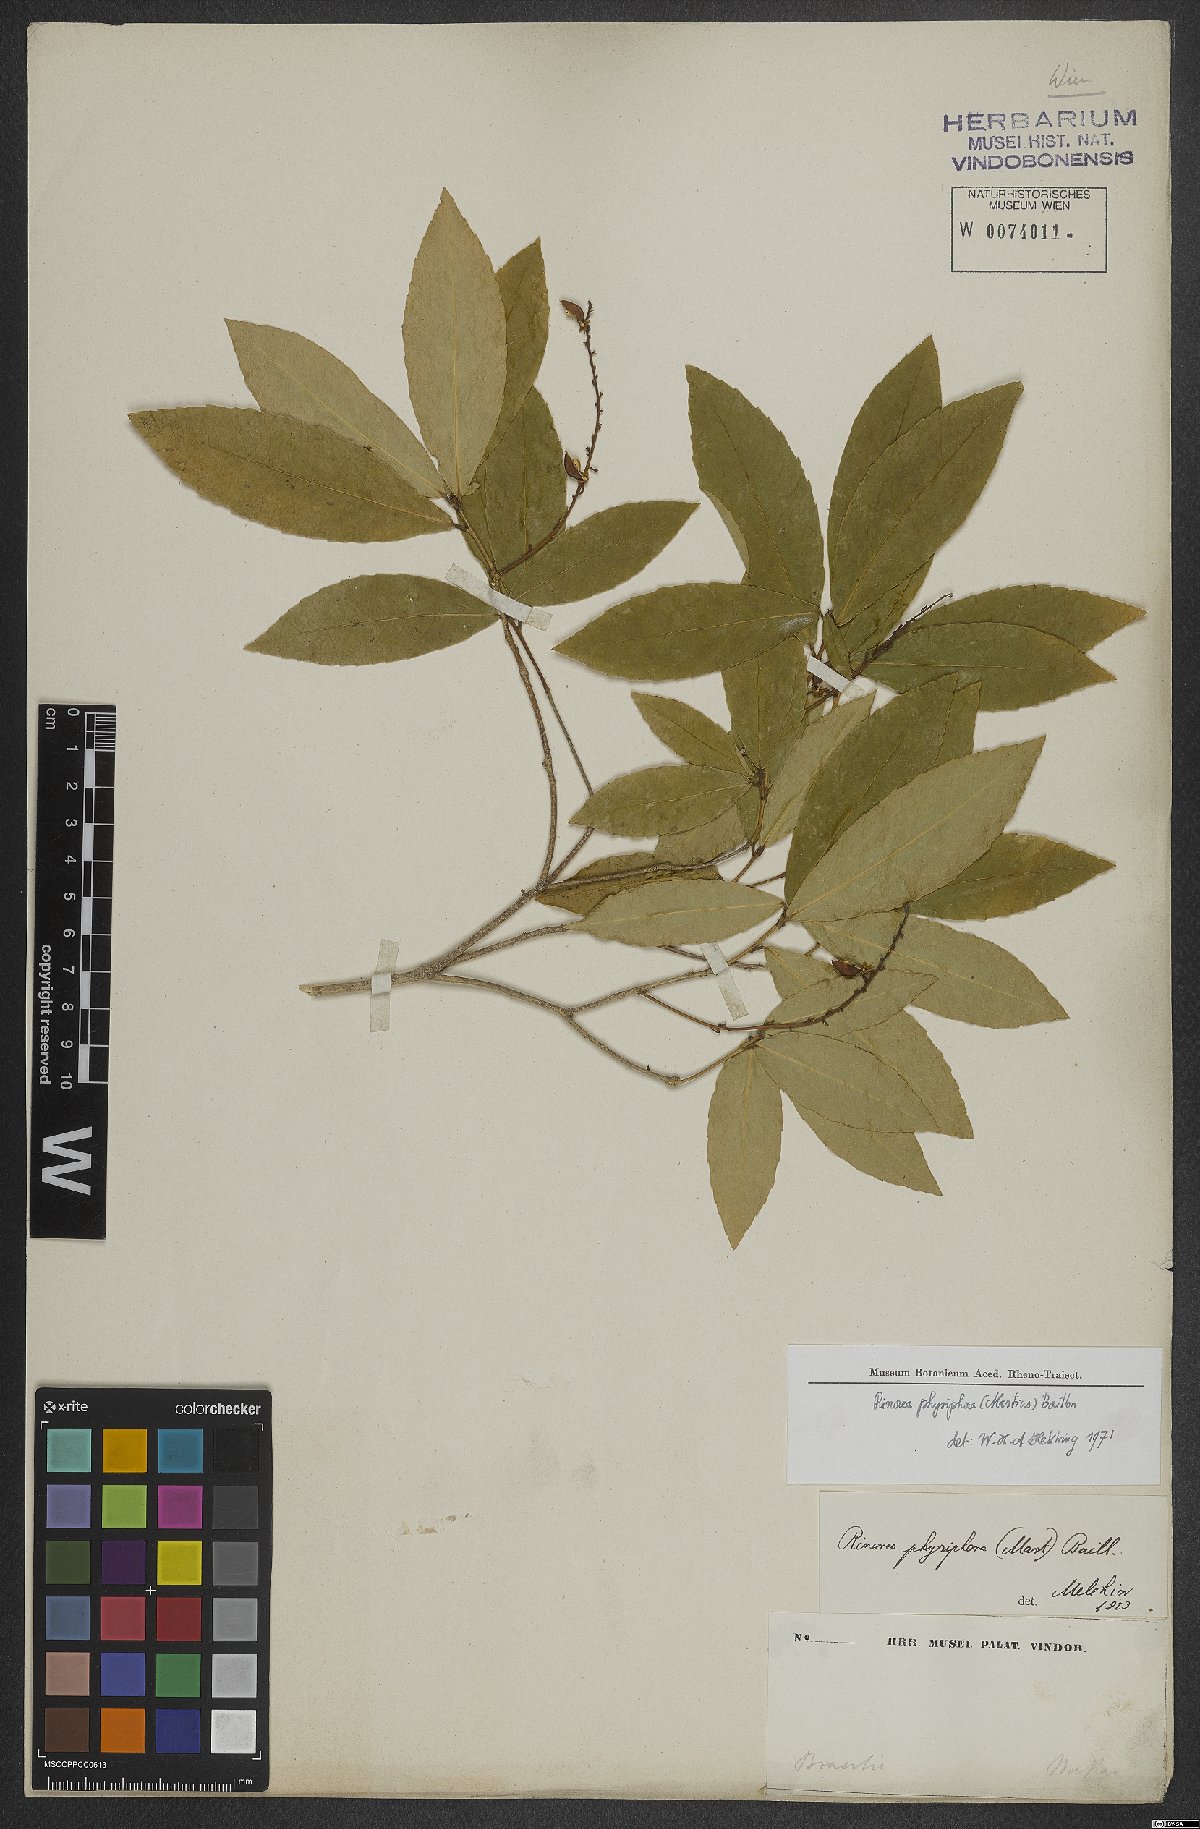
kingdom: Plantae
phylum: Tracheophyta
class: Magnoliopsida
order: Malpighiales
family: Violaceae
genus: Rinorea
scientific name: Rinorea laevigata
